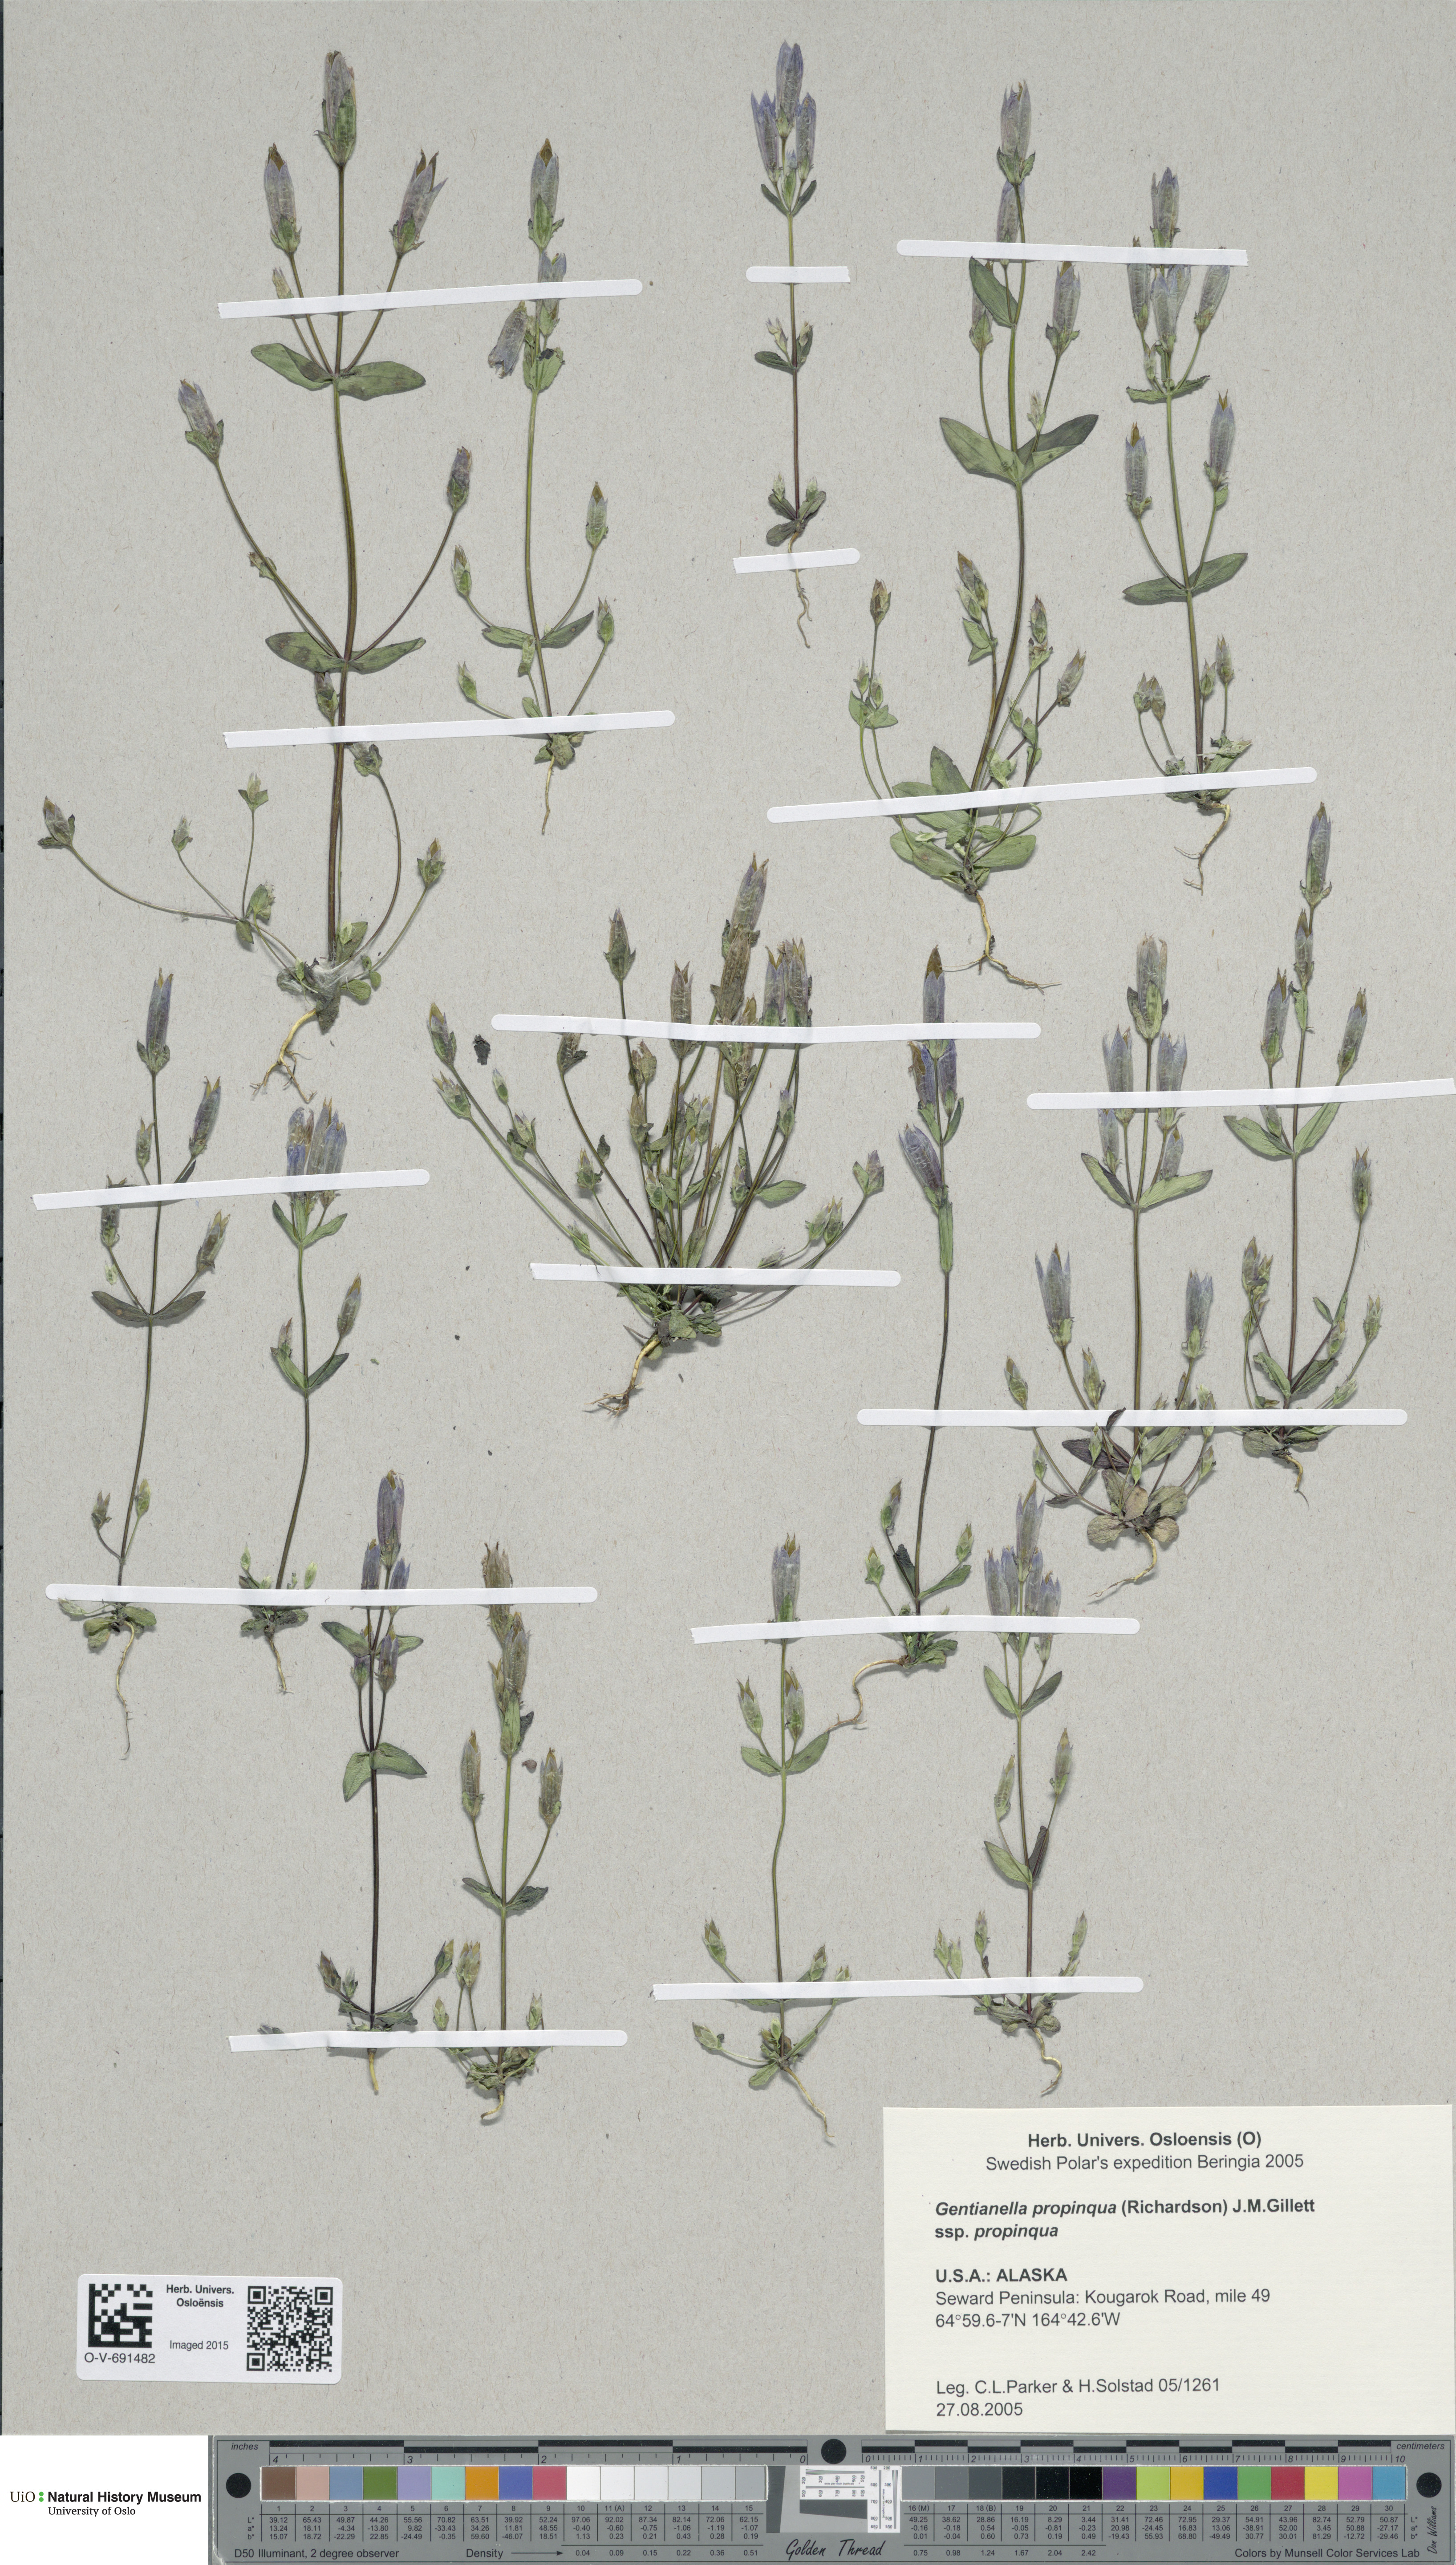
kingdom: Plantae
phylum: Tracheophyta
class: Magnoliopsida
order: Gentianales
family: Gentianaceae
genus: Gentianella
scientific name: Gentianella propinqua
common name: Four-parted dwarf-gentian
